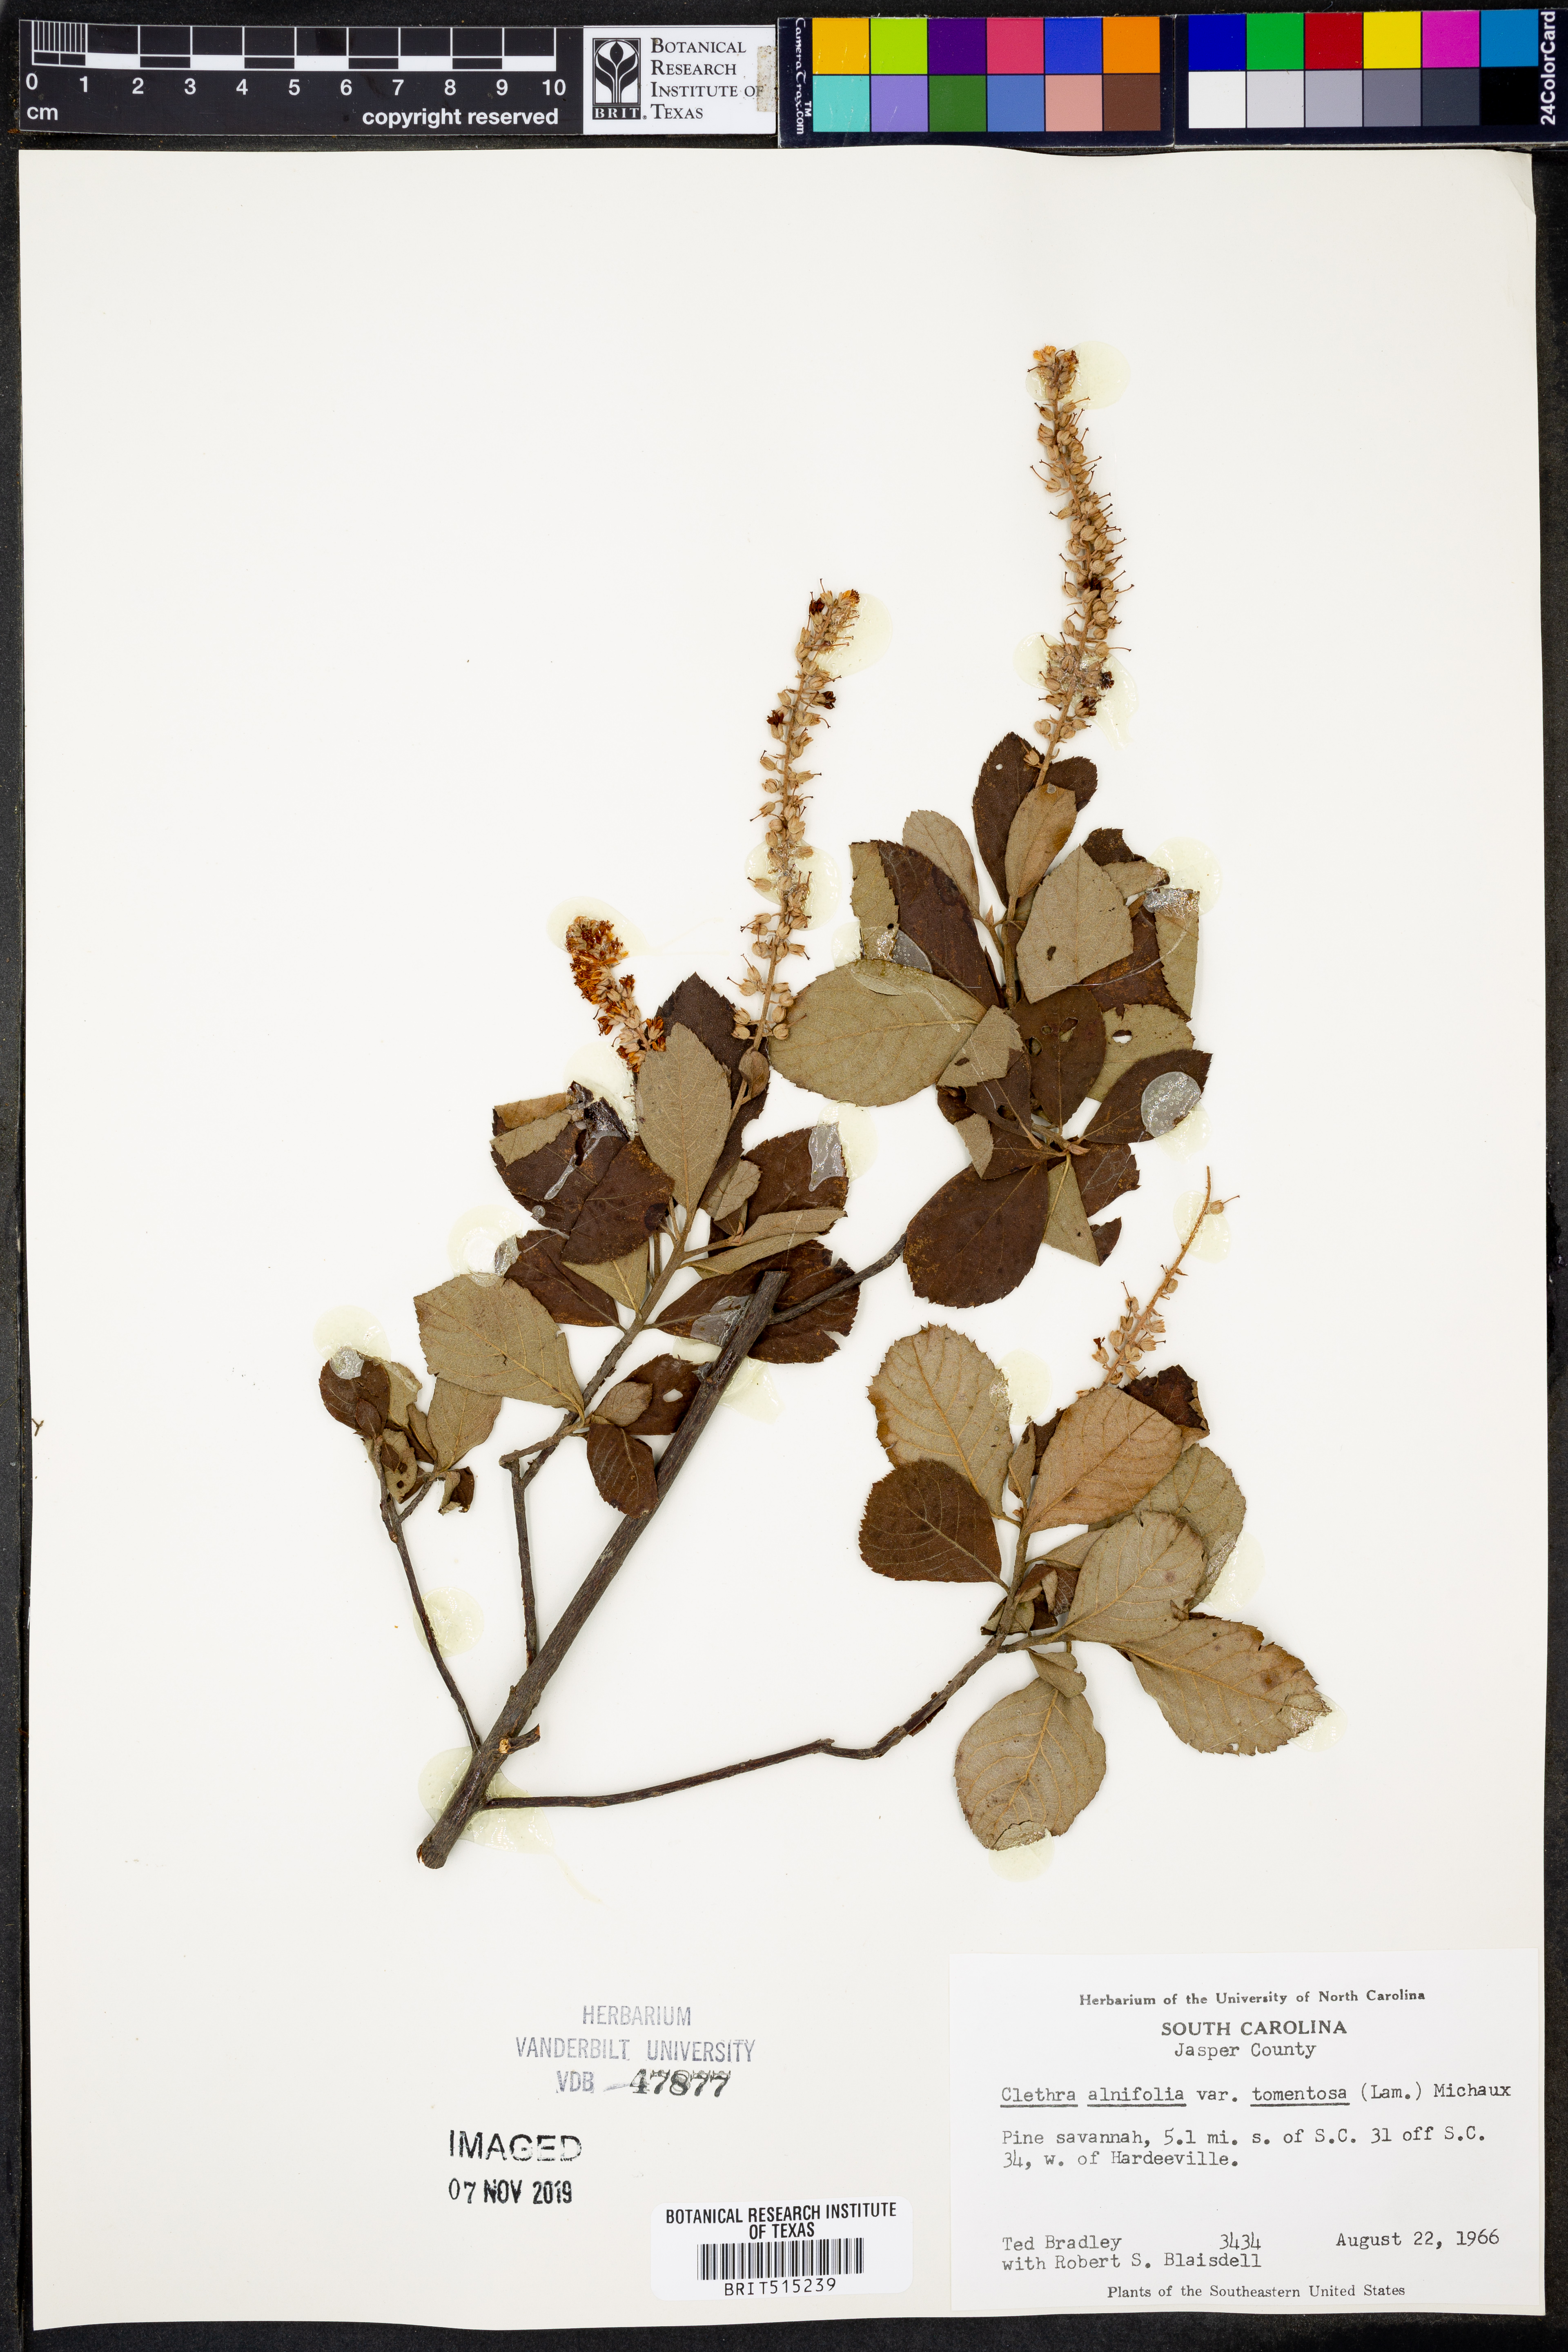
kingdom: Plantae
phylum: Tracheophyta
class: Magnoliopsida
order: Ericales
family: Clethraceae
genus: Clethra
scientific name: Clethra tomentosa
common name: Downy sweet pepperbush
